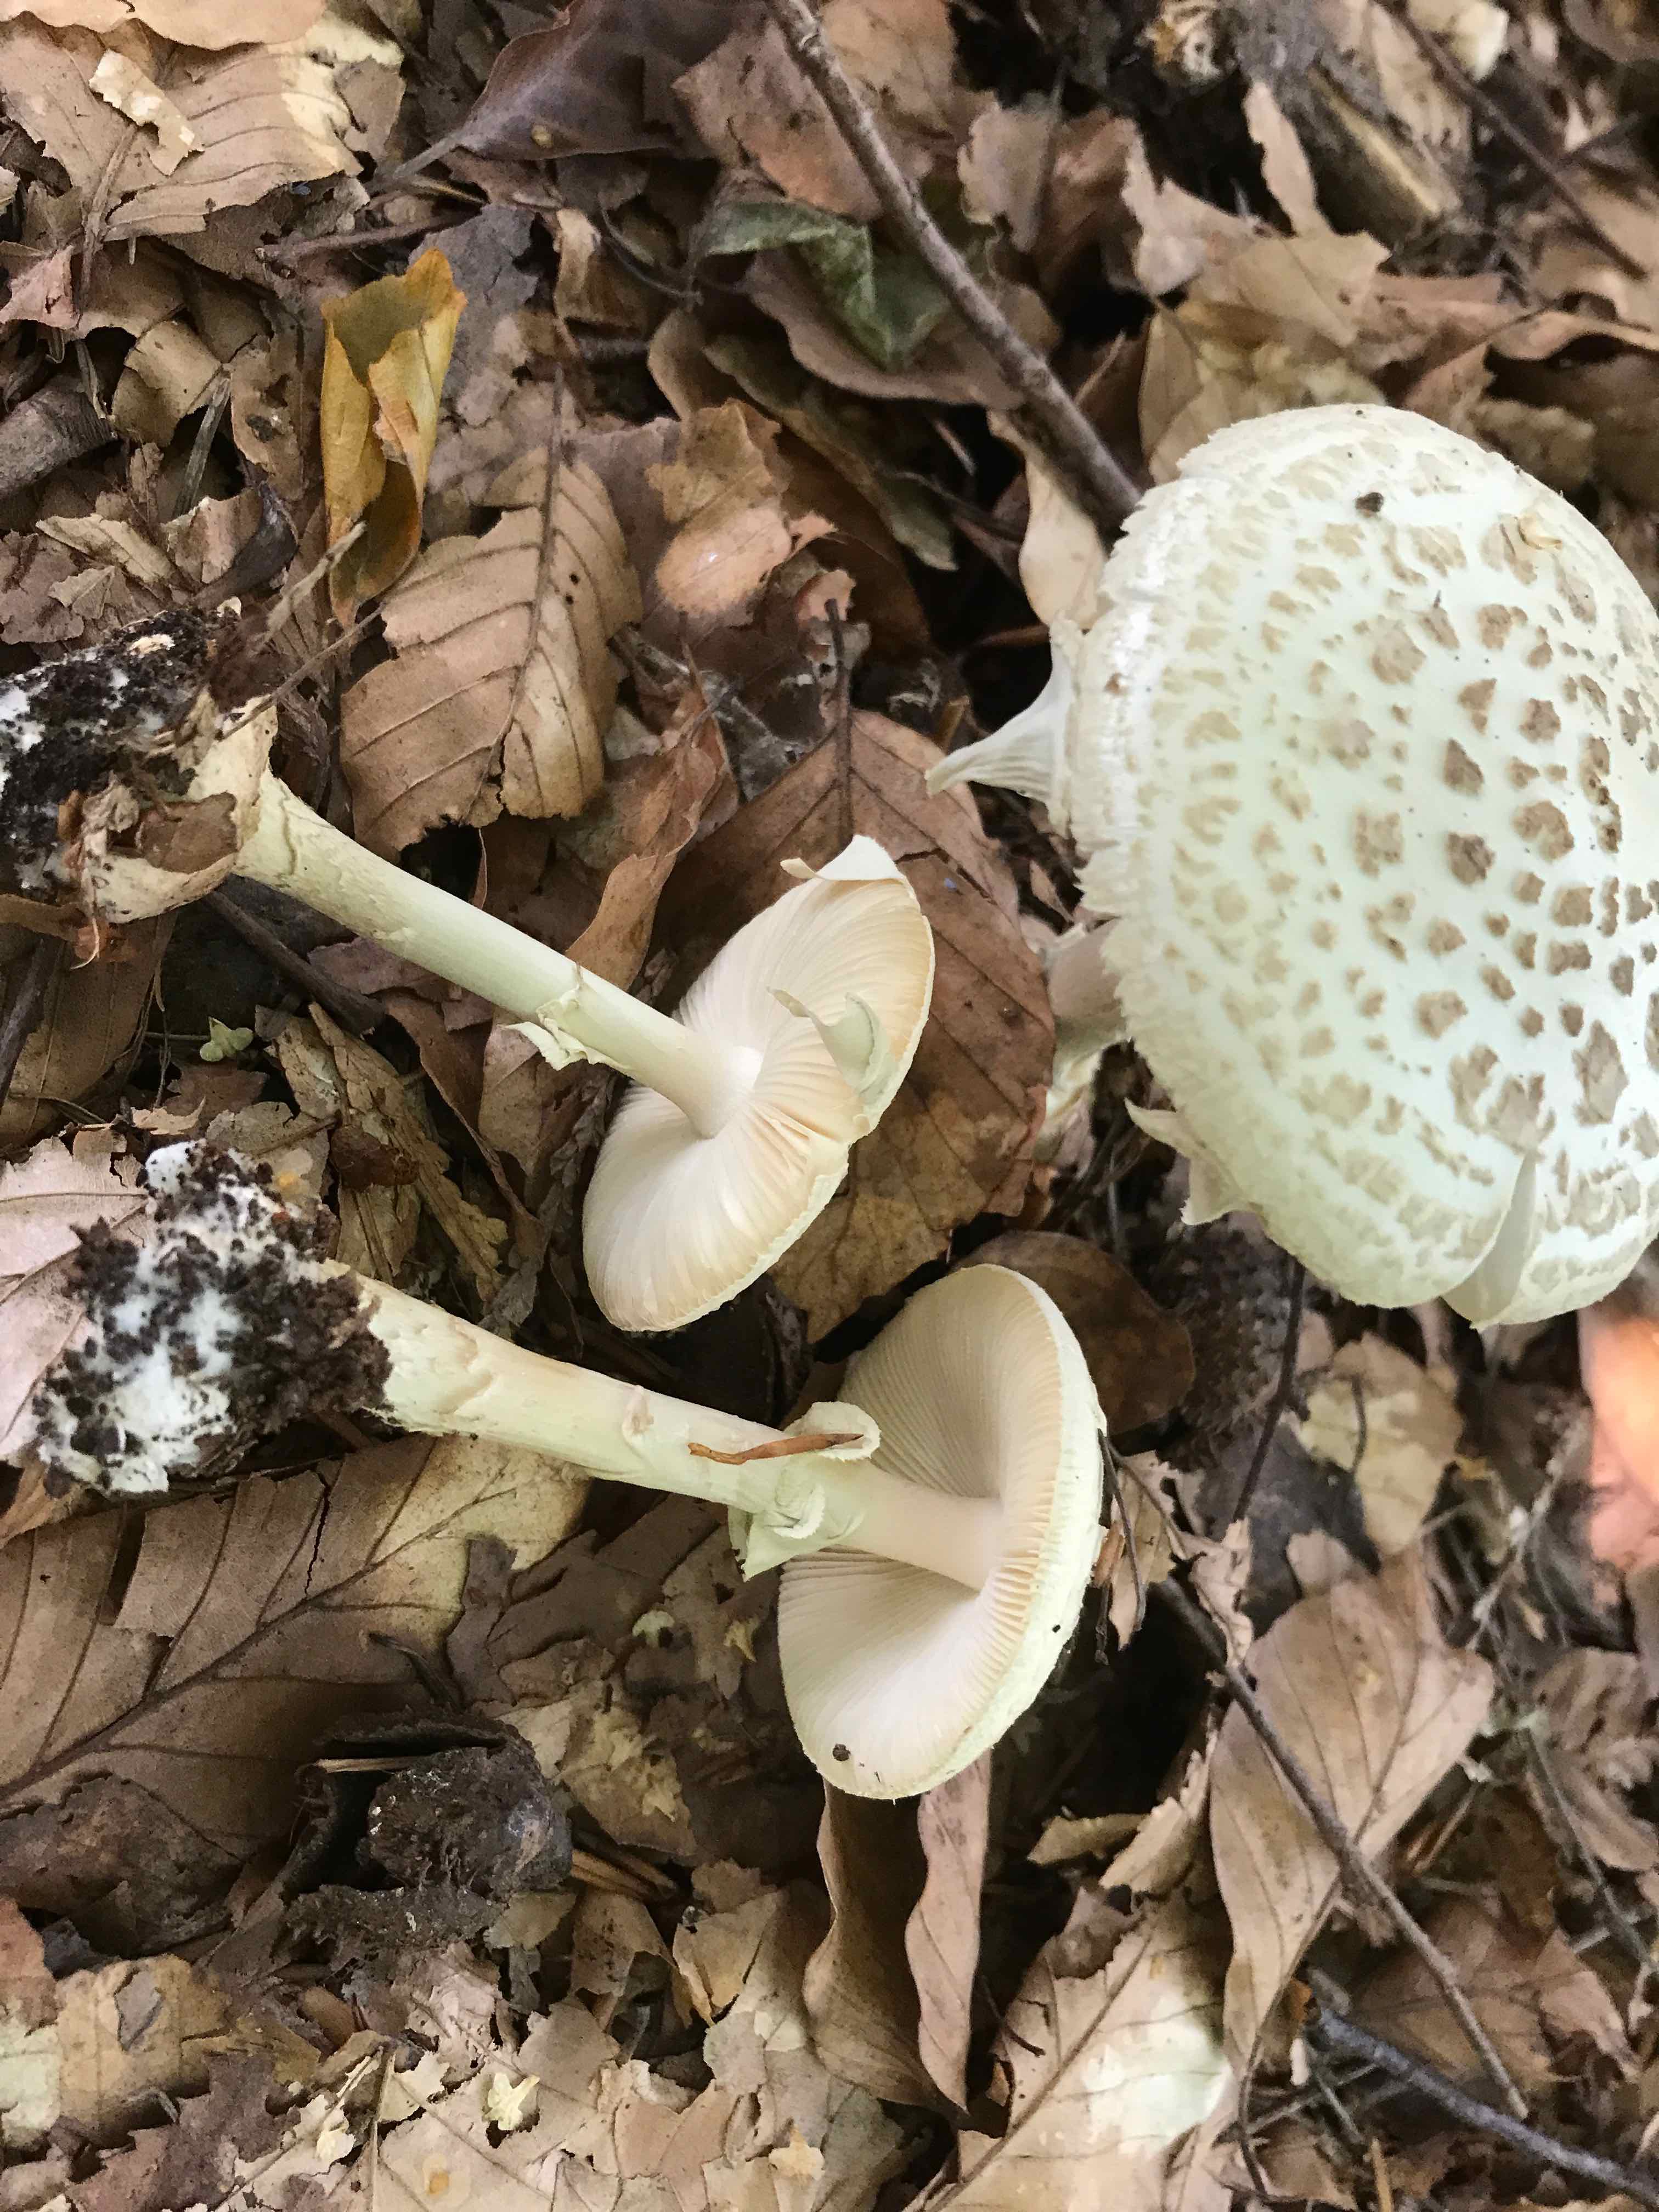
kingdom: Fungi
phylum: Basidiomycota
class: Agaricomycetes
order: Agaricales
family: Amanitaceae
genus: Amanita
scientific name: Amanita citrina
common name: kugleknoldet fluesvamp
